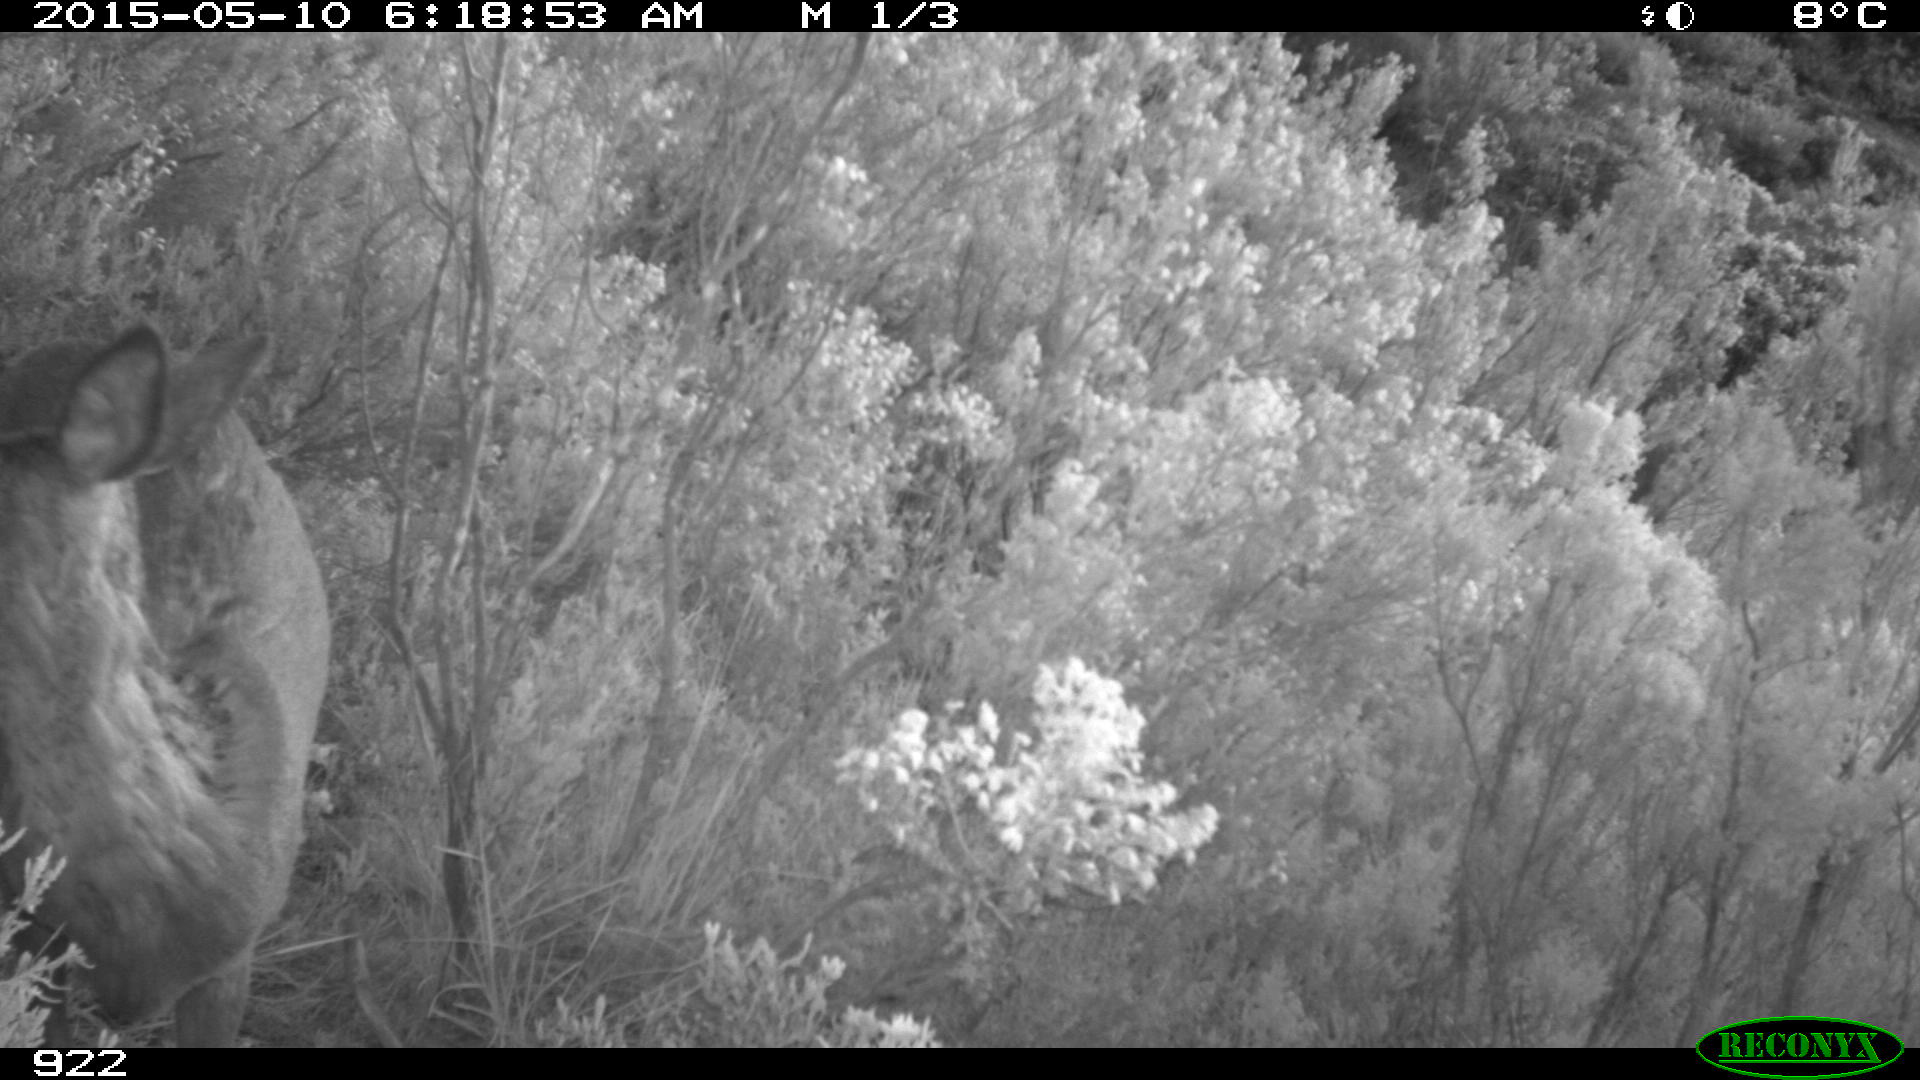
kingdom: Animalia
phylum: Chordata
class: Mammalia
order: Artiodactyla
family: Cervidae
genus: Capreolus
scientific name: Capreolus capreolus
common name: Western roe deer
